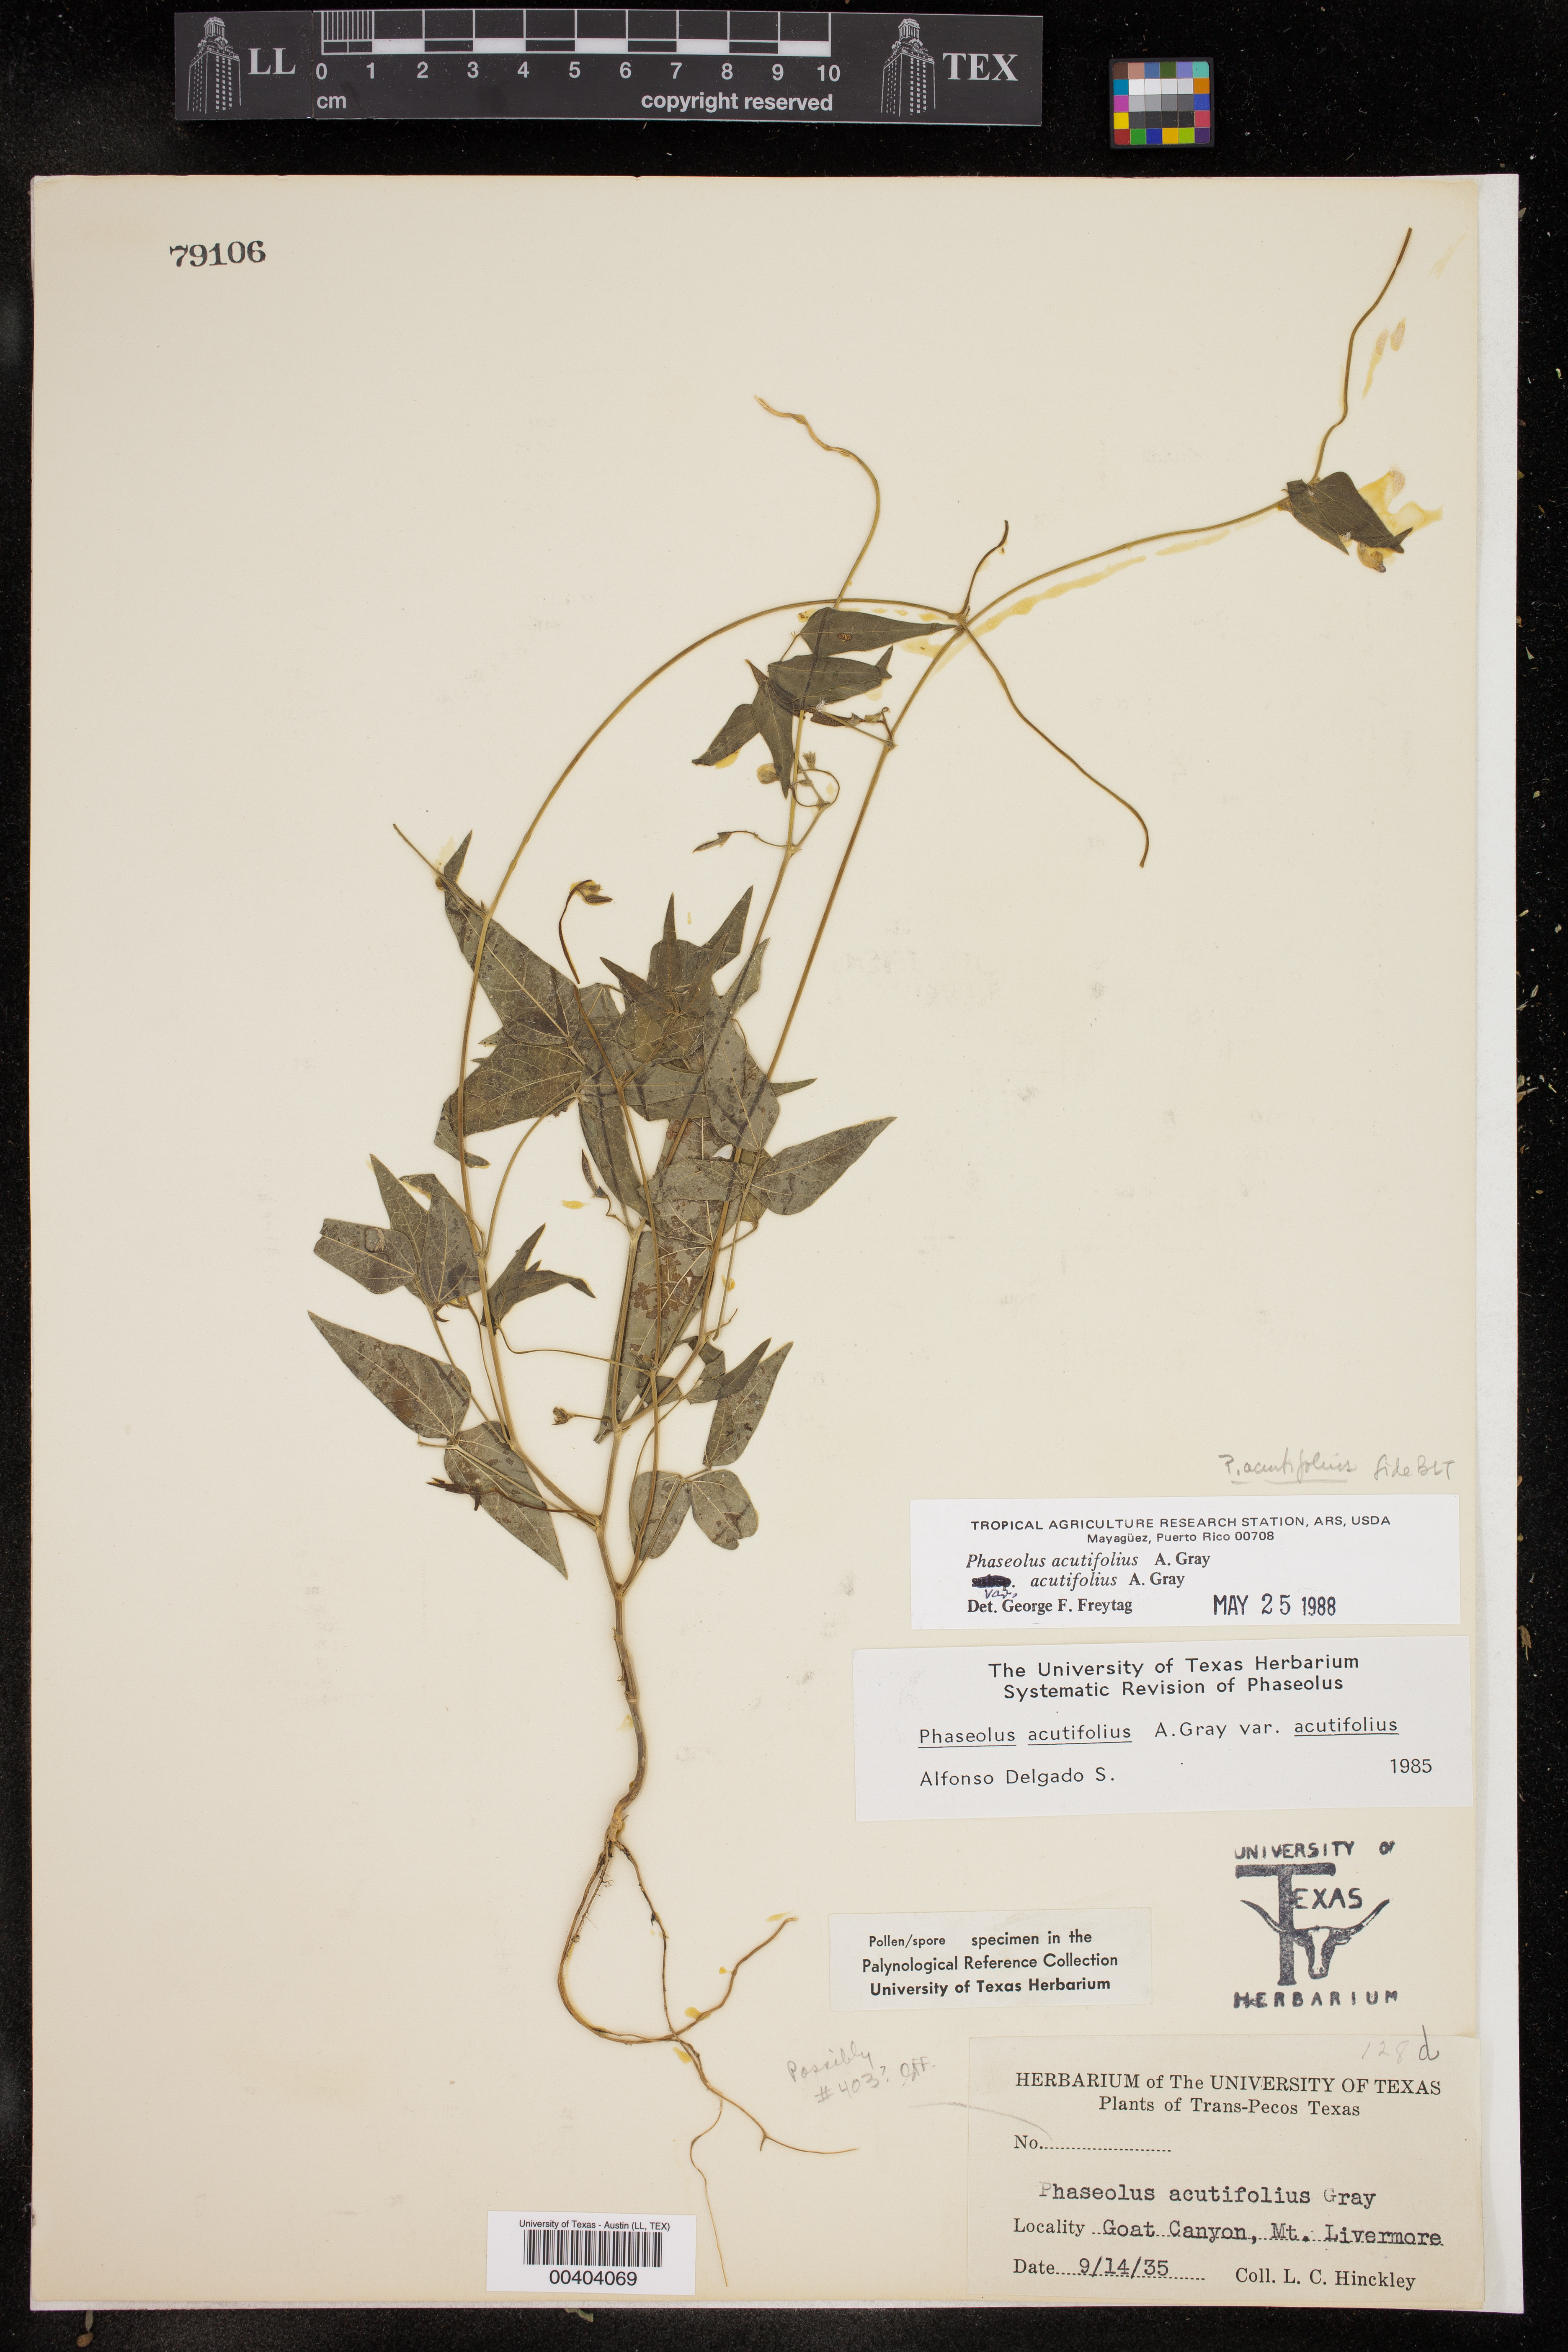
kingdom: Plantae
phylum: Tracheophyta
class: Magnoliopsida
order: Fabales
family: Fabaceae
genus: Phaseolus
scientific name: Phaseolus acutifolius
